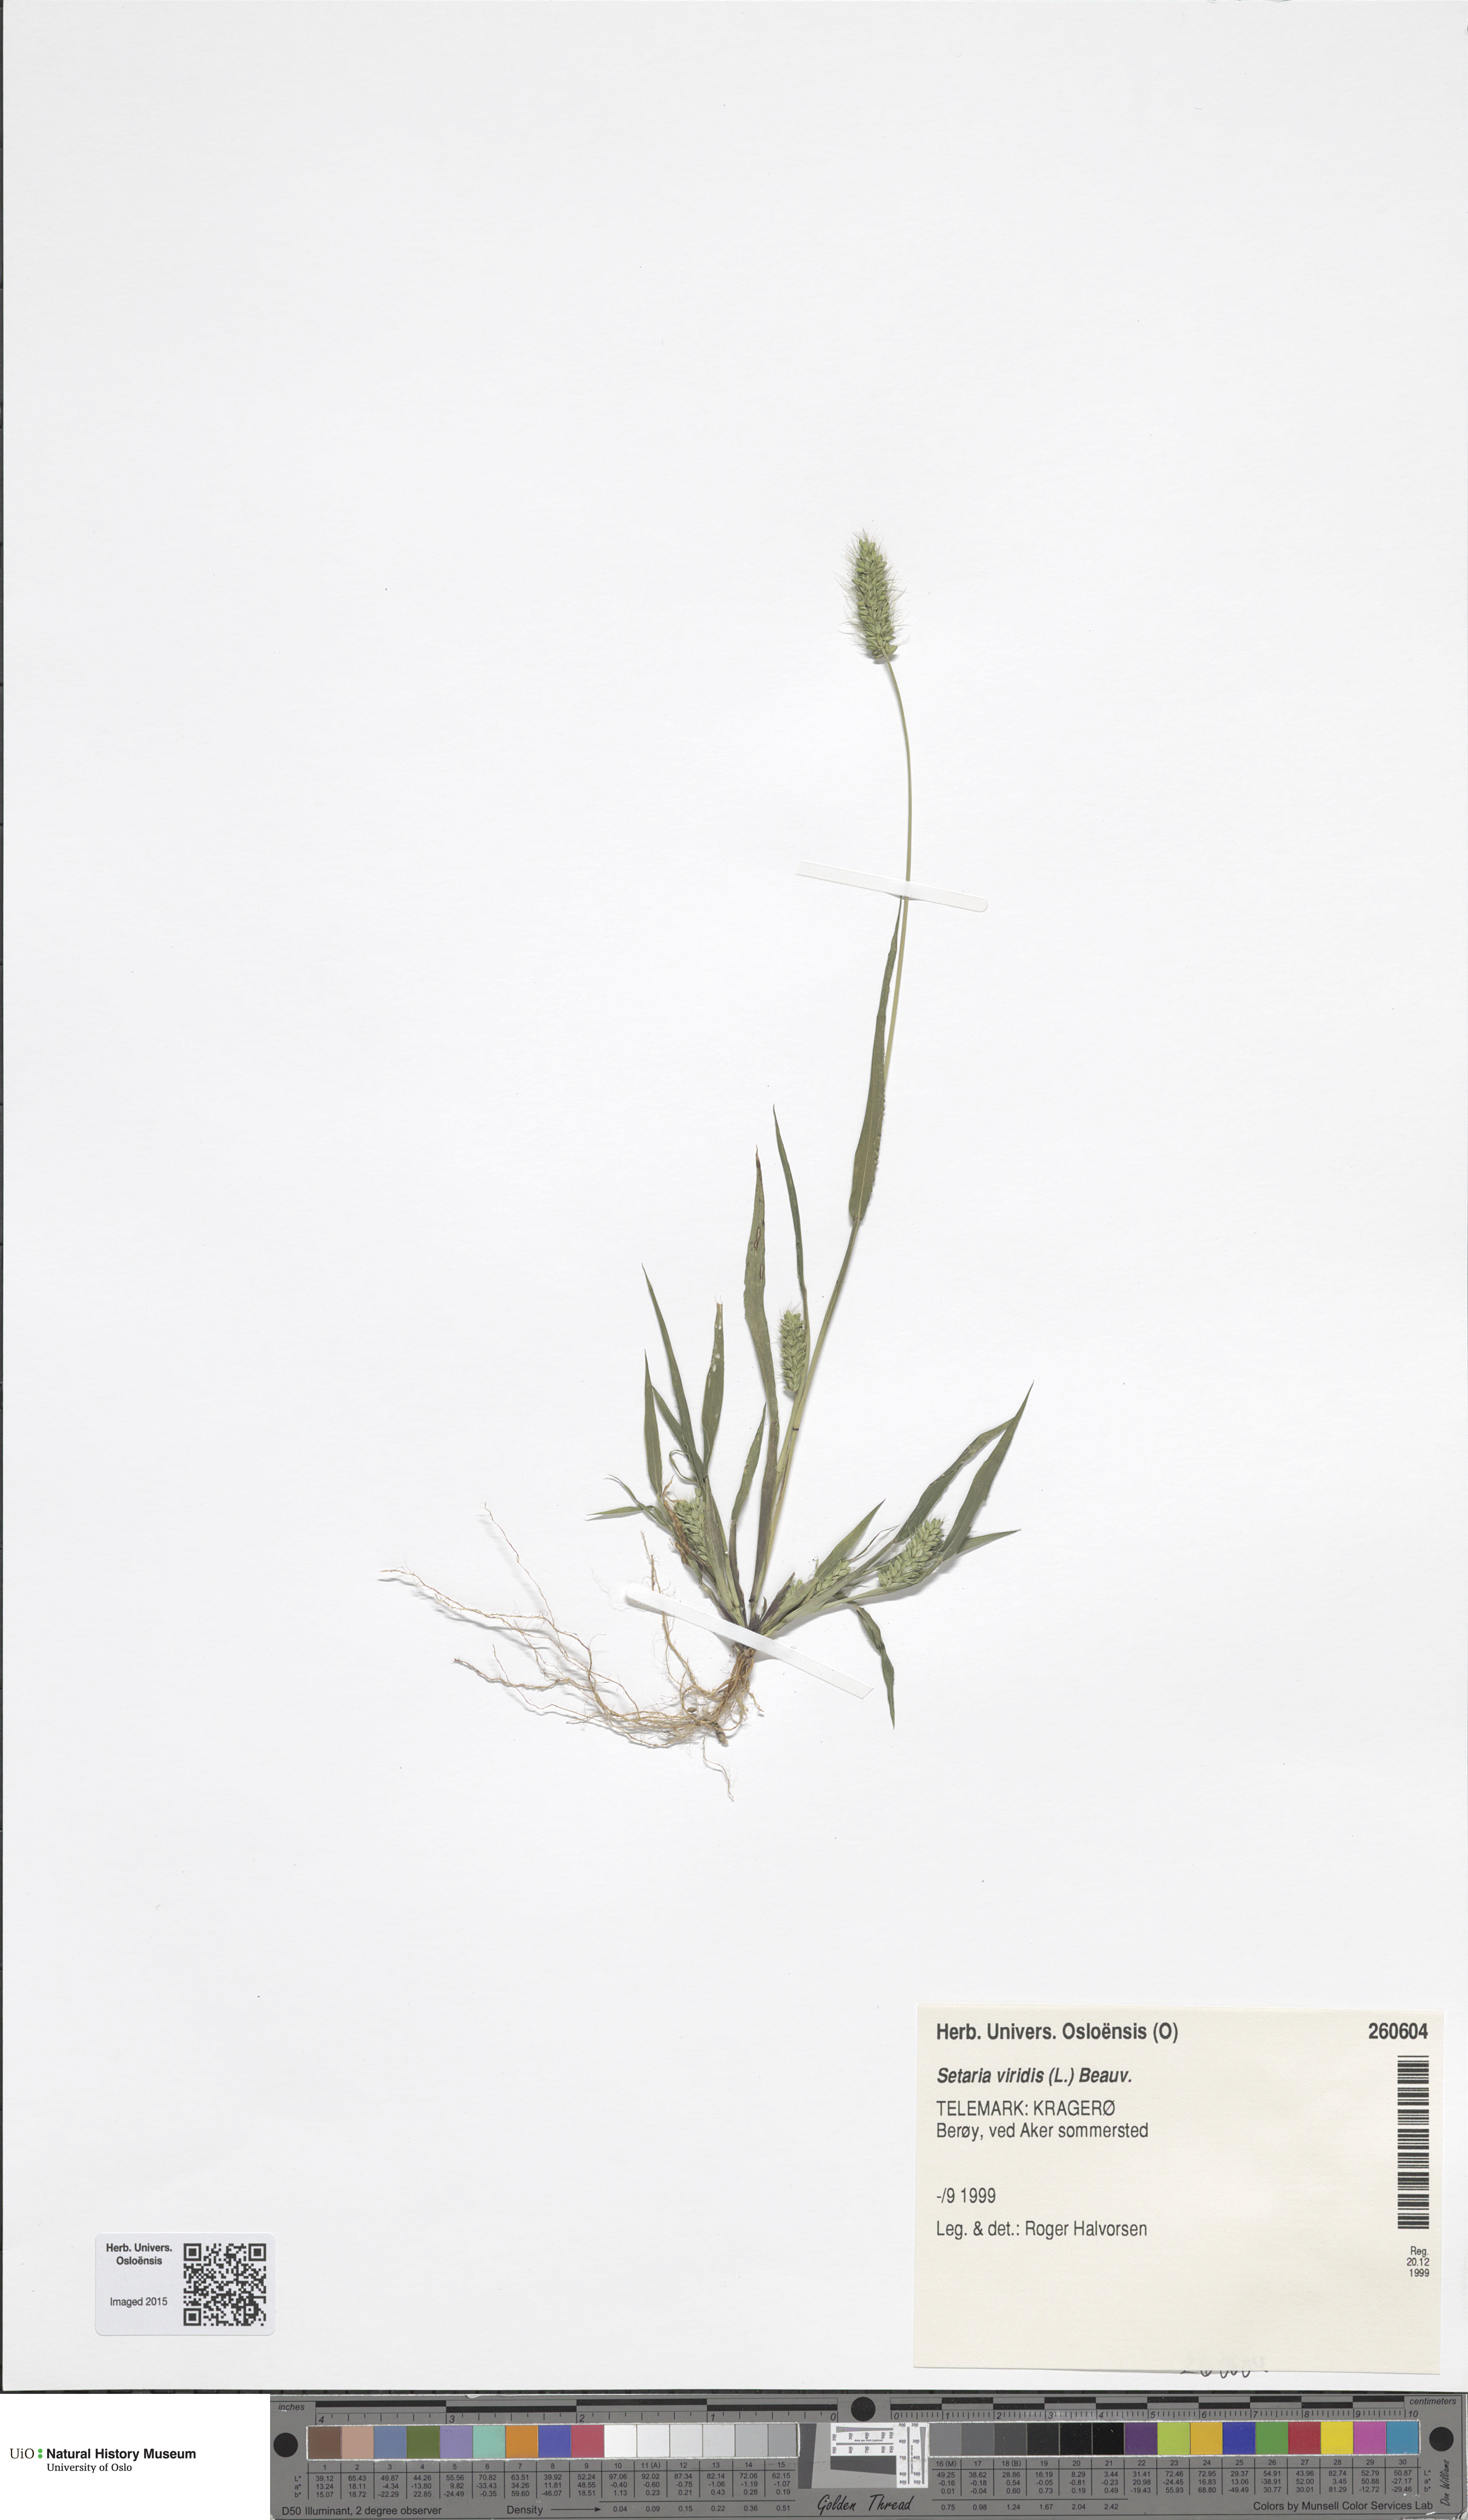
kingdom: Plantae
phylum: Tracheophyta
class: Liliopsida
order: Poales
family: Poaceae
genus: Setaria
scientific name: Setaria viridis
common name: Green bristlegrass
